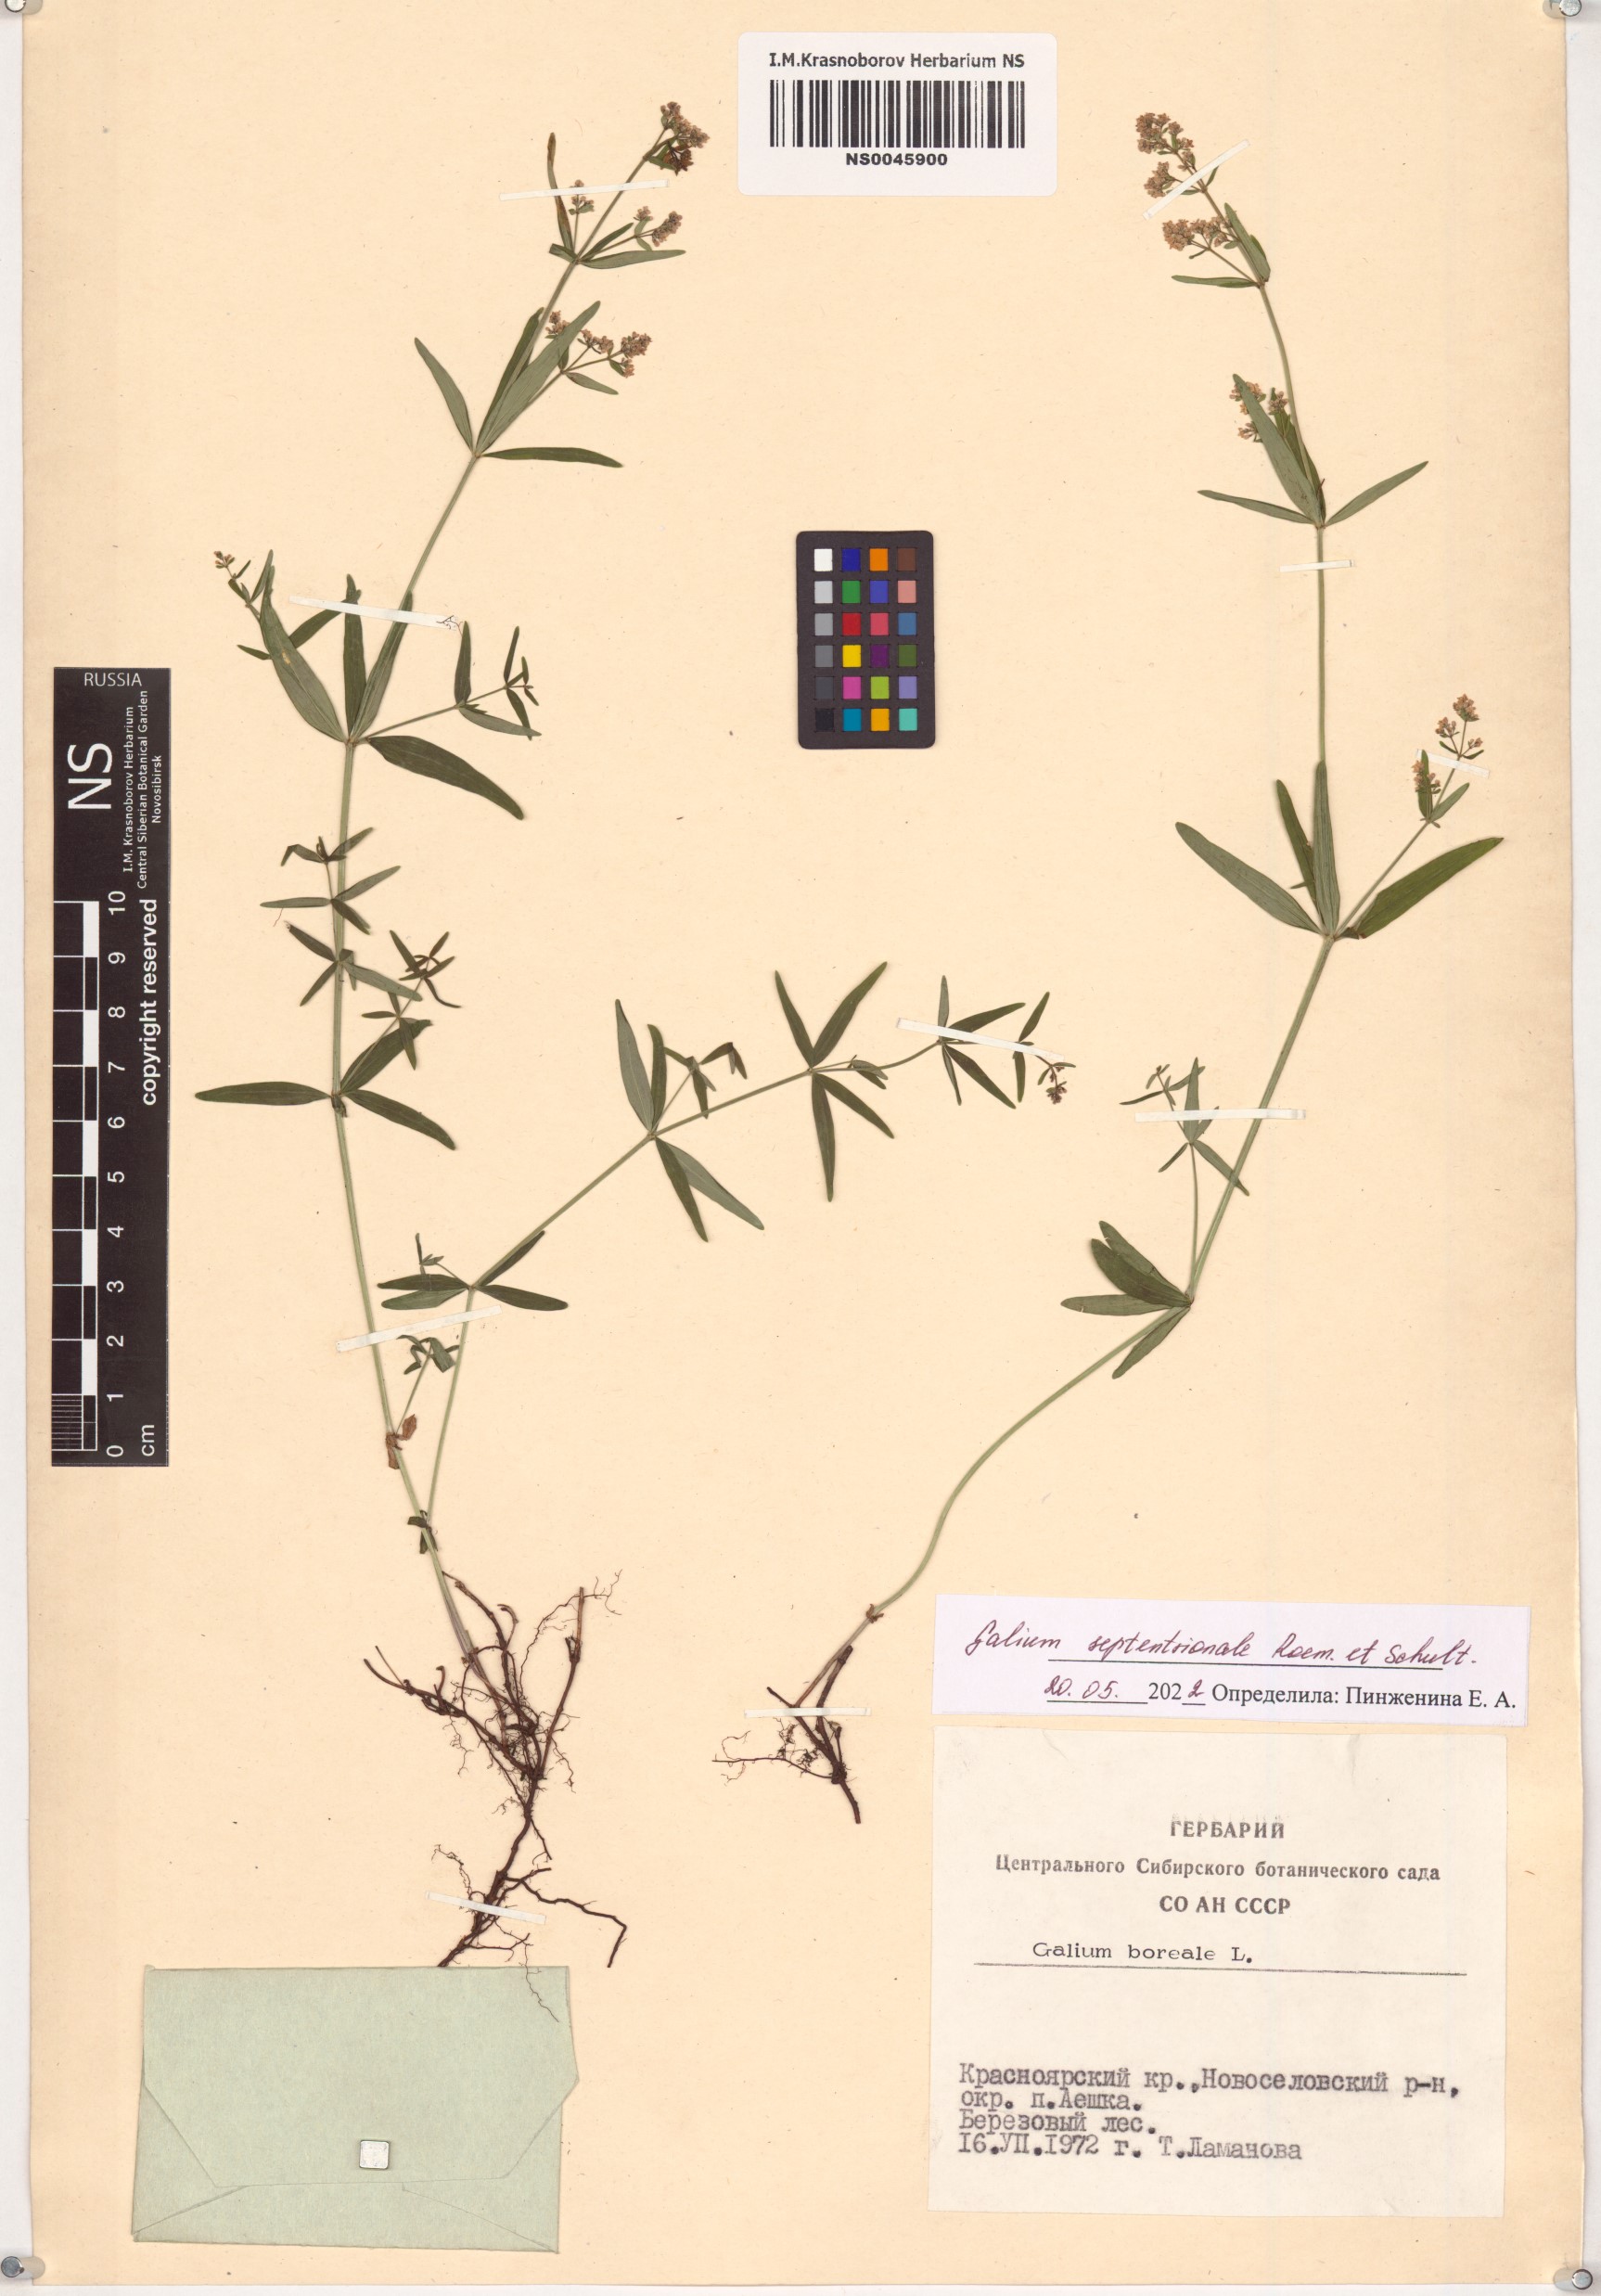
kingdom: Plantae
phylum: Tracheophyta
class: Magnoliopsida
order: Gentianales
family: Rubiaceae
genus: Galium
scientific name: Galium boreale
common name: Northern bedstraw
